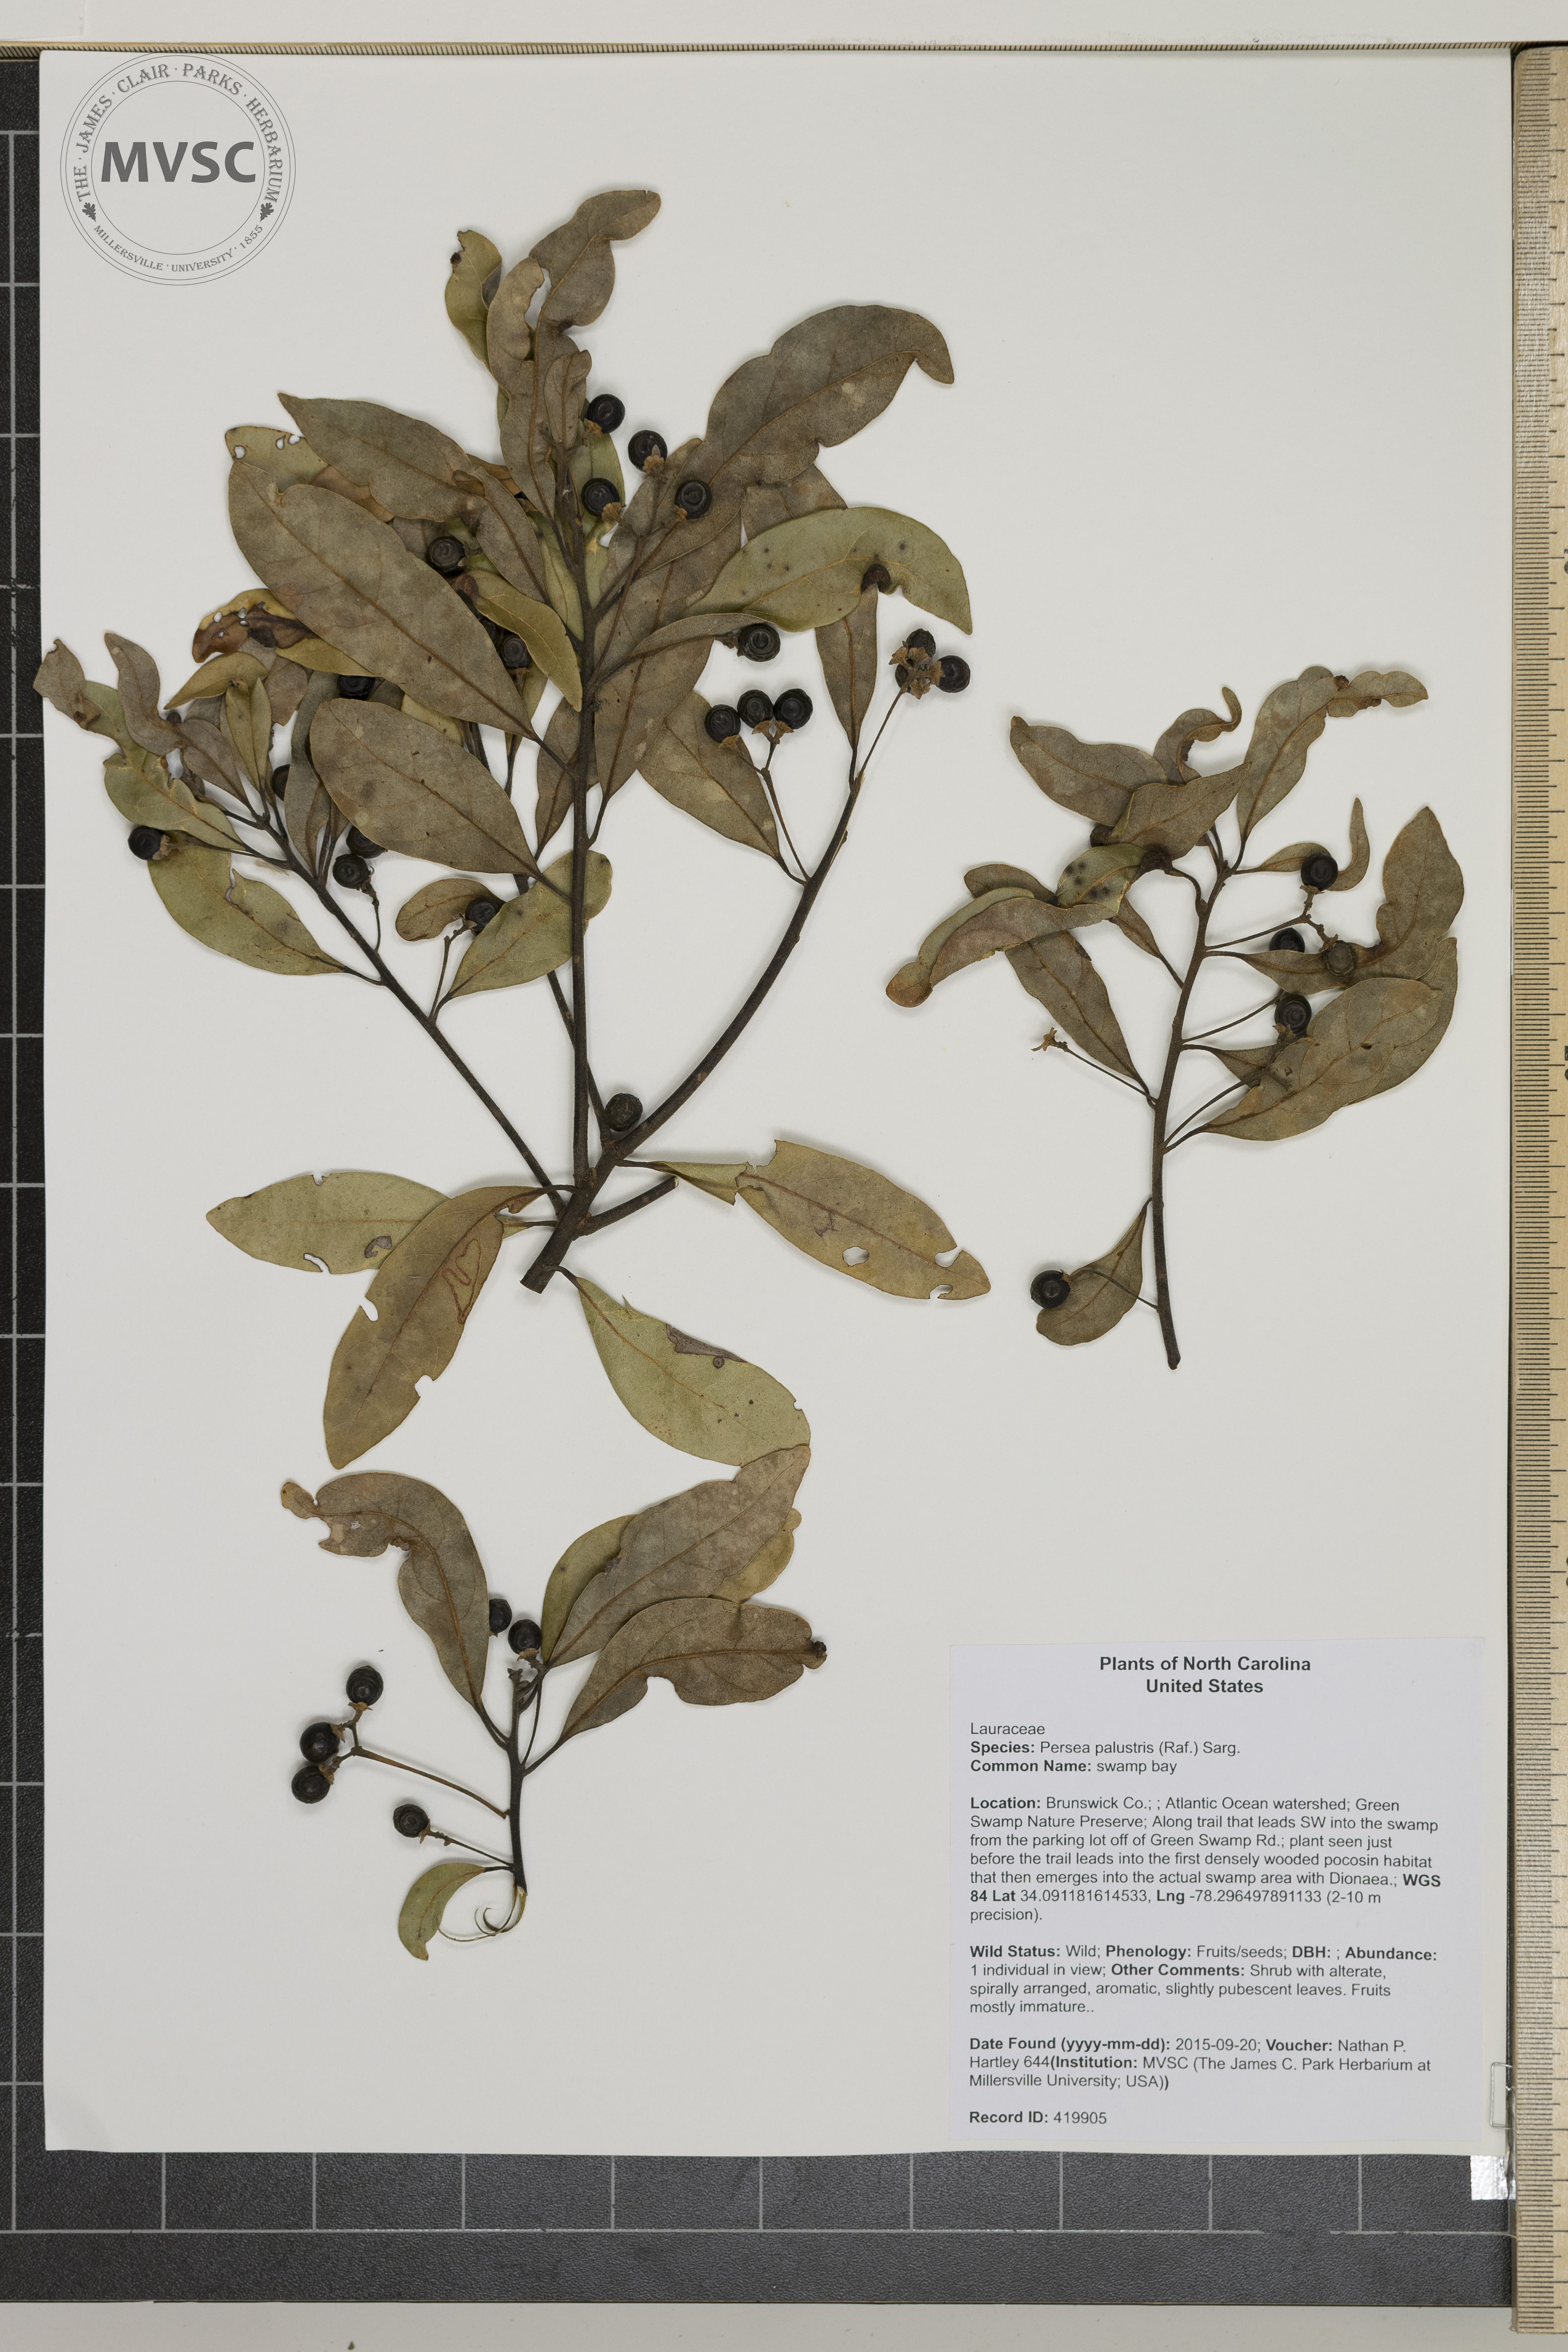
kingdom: Plantae
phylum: Tracheophyta
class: Magnoliopsida
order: Laurales
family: Lauraceae
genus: Persea
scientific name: Persea palustris
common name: swamp bay
